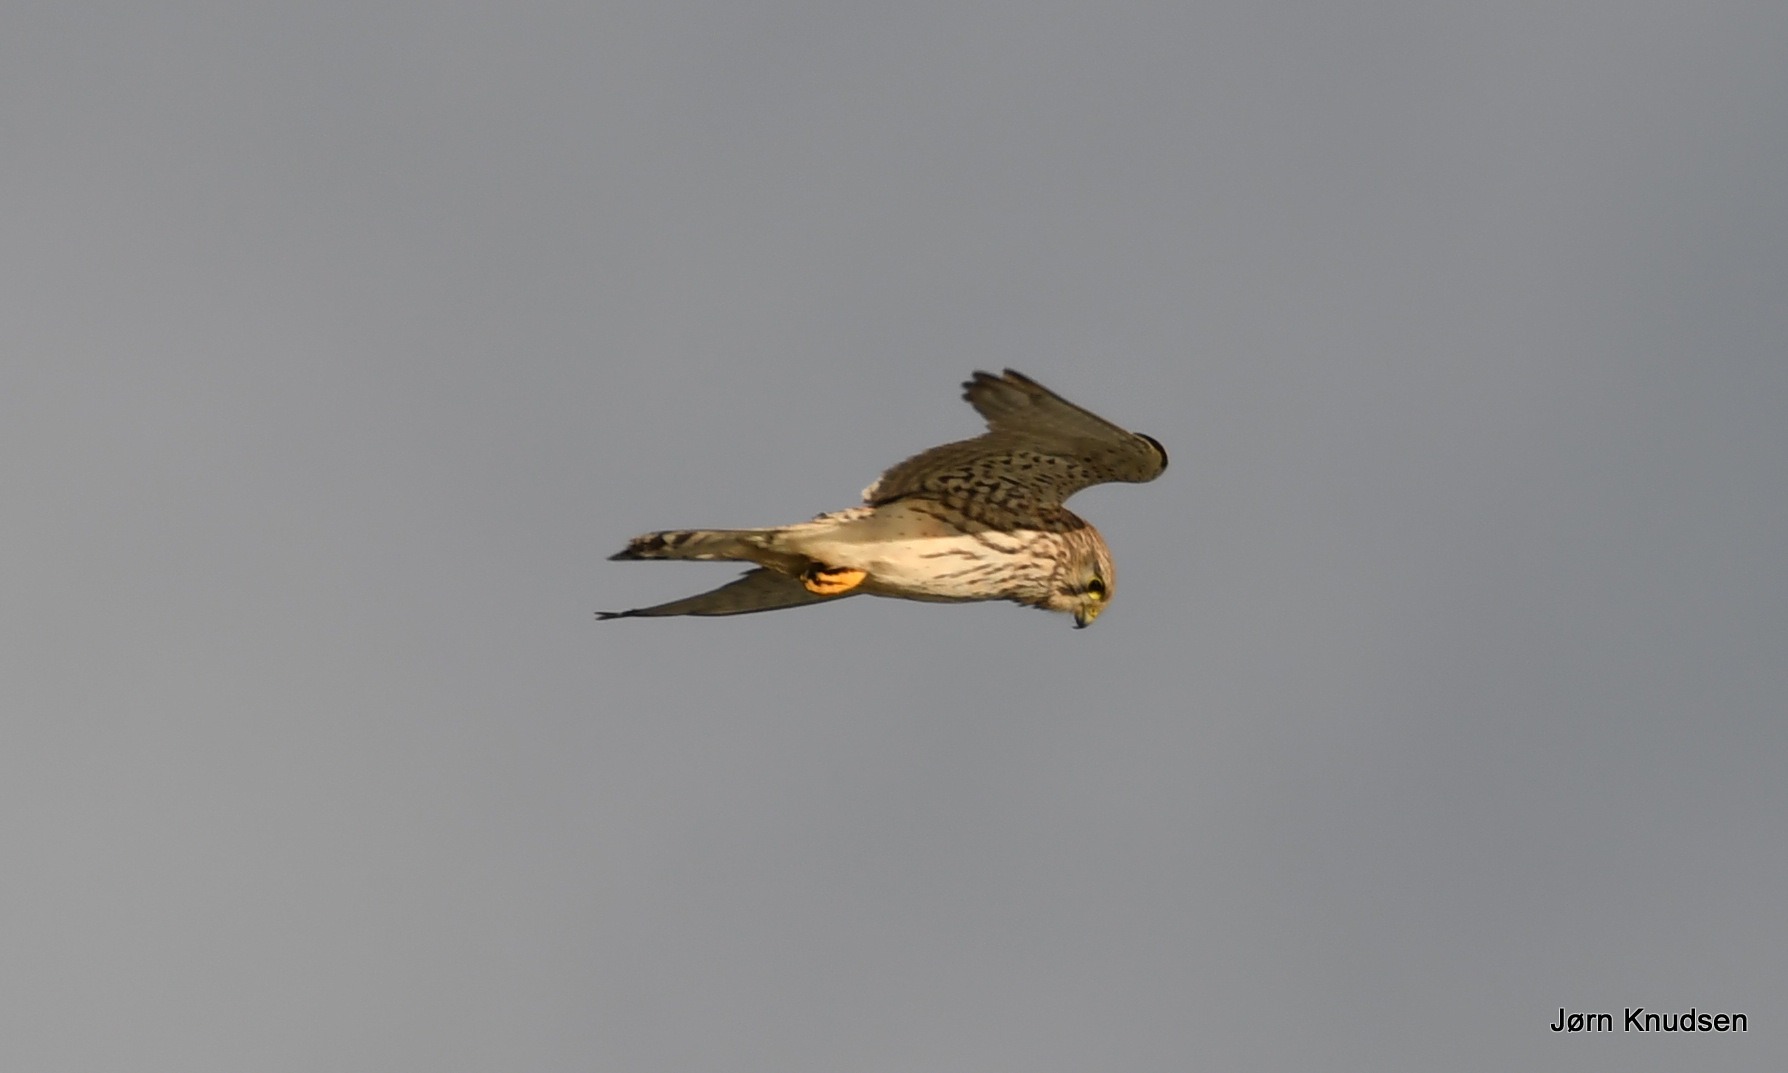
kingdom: Animalia
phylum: Chordata
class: Aves
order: Falconiformes
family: Falconidae
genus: Falco
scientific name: Falco tinnunculus
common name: Tårnfalk
